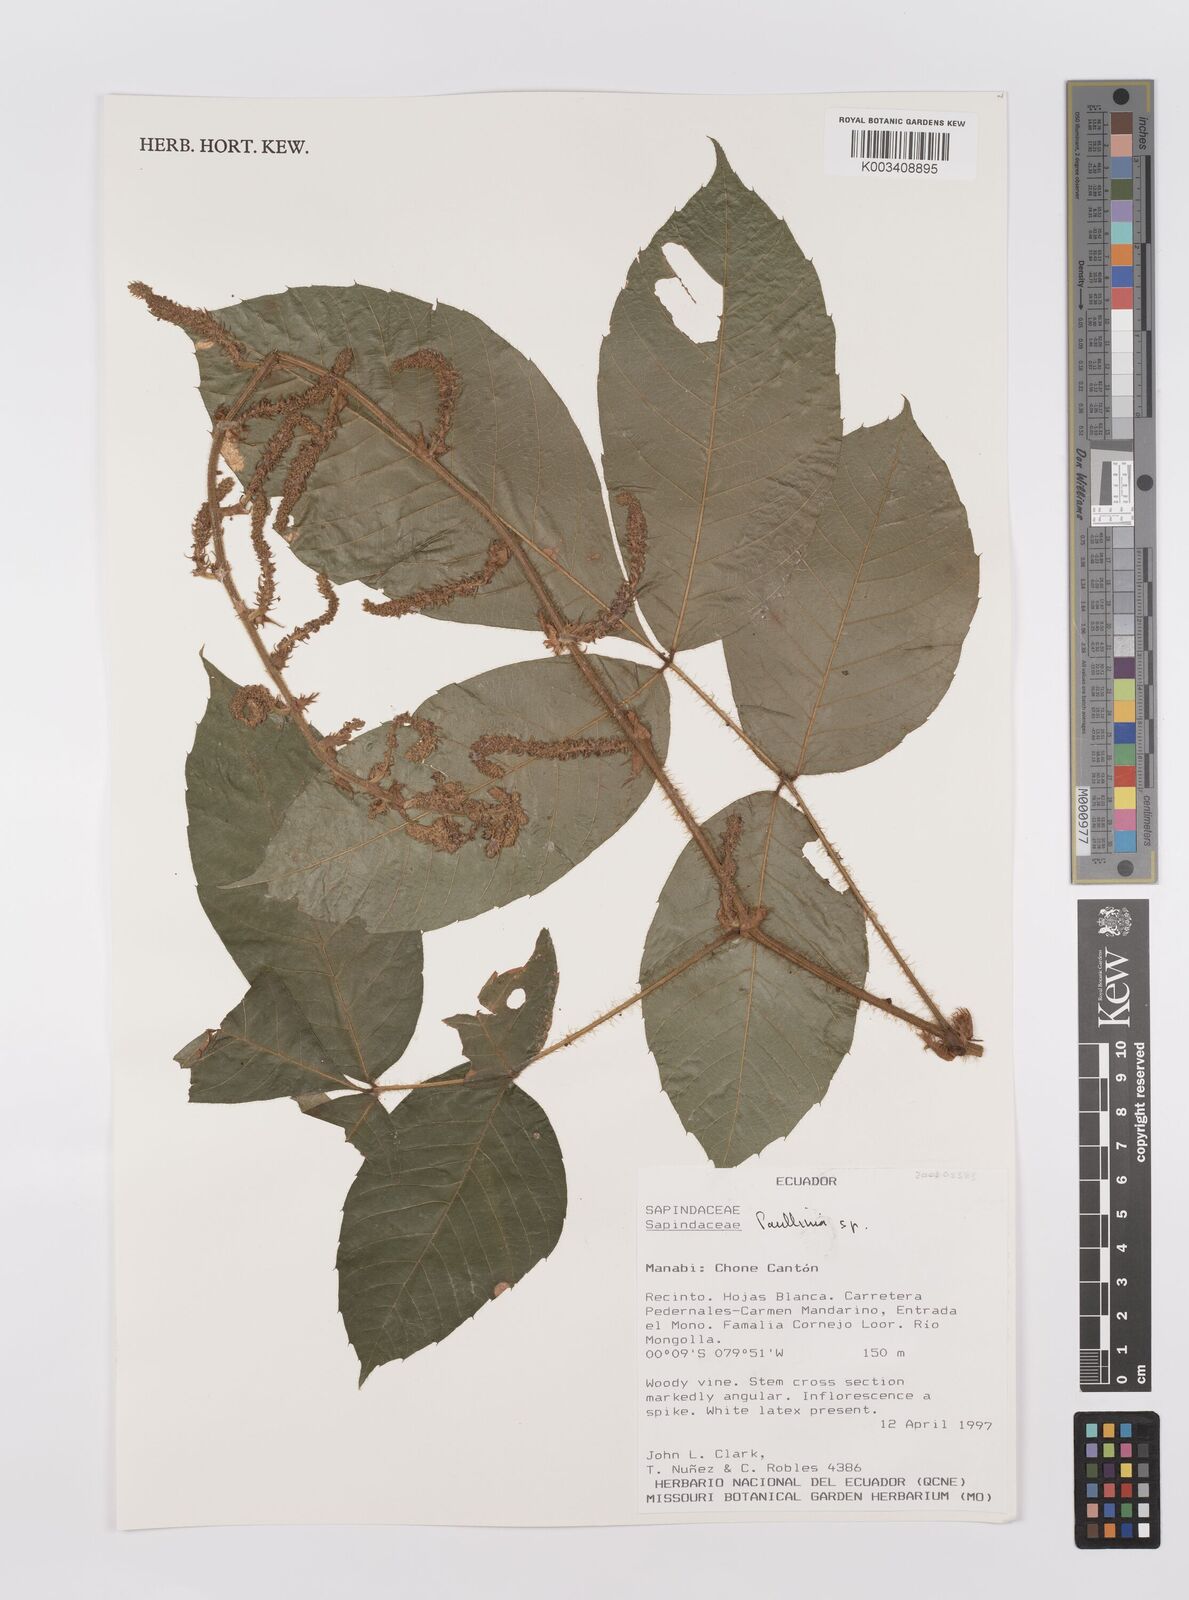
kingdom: Plantae
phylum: Tracheophyta
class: Magnoliopsida
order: Sapindales
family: Sapindaceae
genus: Paullinia
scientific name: Paullinia
